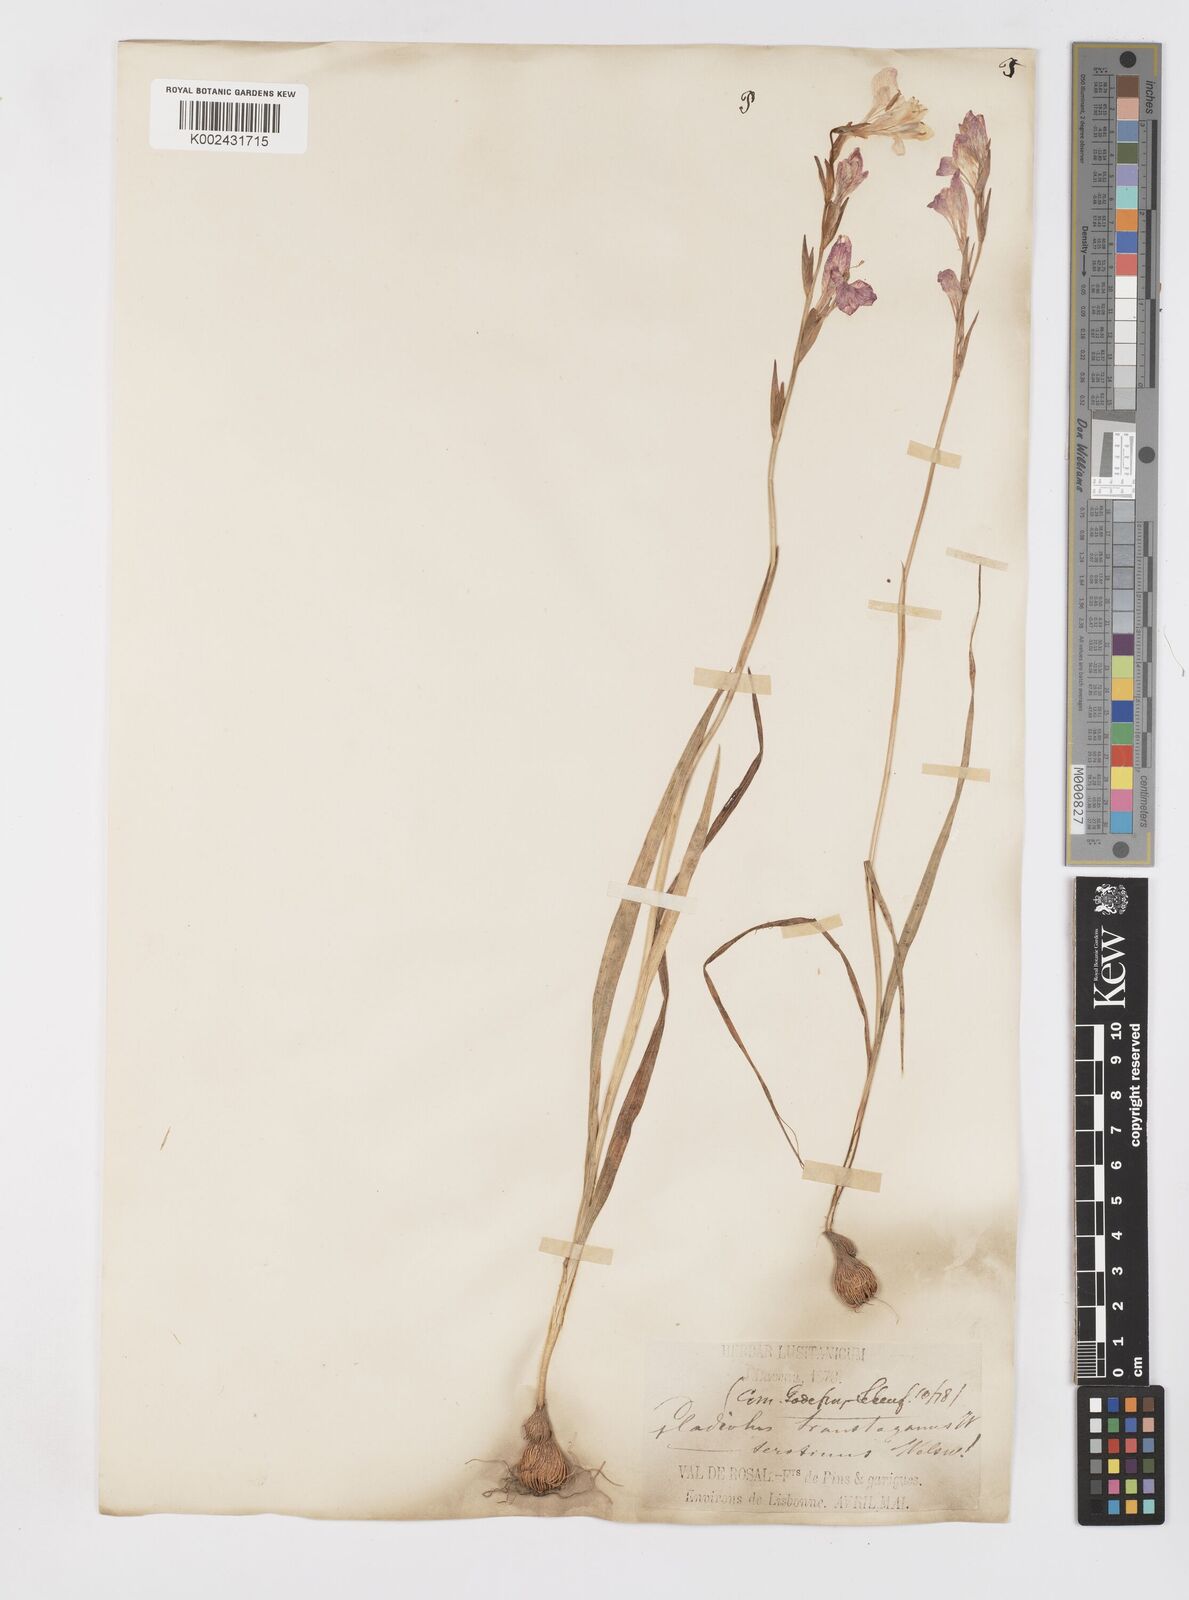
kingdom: Plantae
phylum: Tracheophyta
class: Liliopsida
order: Asparagales
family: Iridaceae
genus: Gladiolus
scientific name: Gladiolus illyricus
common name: Wild gladiolus
